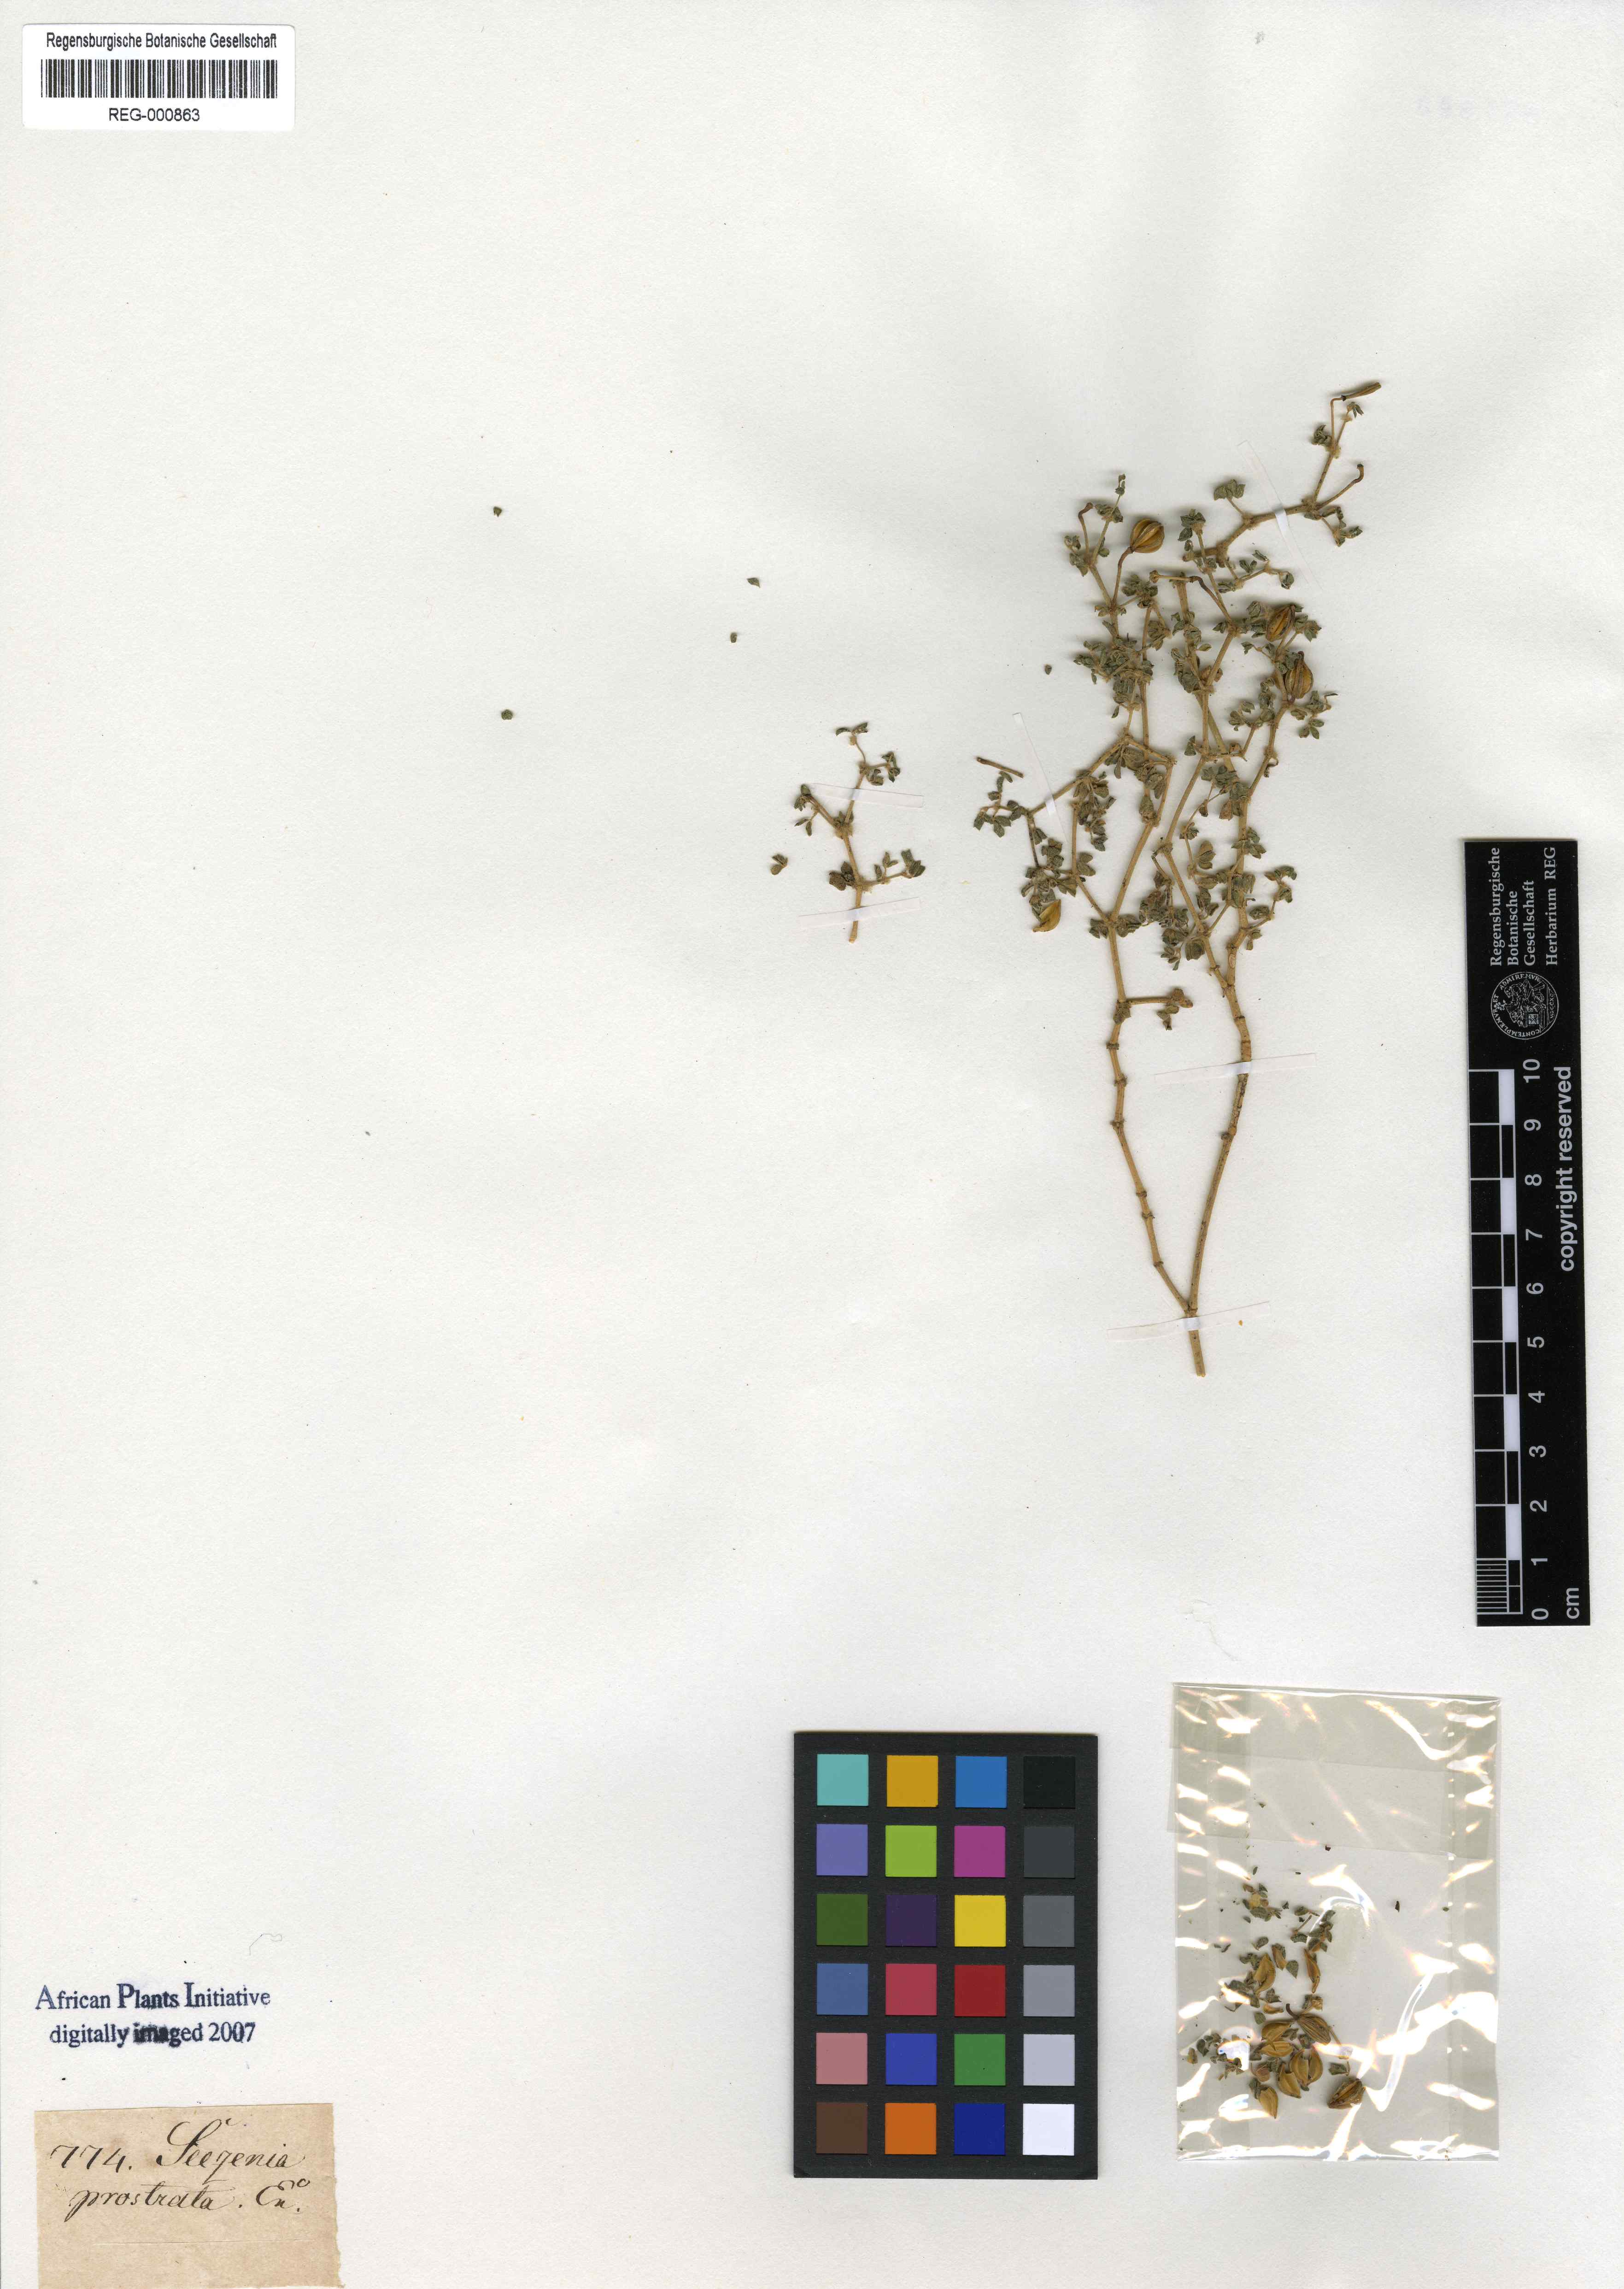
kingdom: Plantae
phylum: Tracheophyta
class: Magnoliopsida
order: Zygophyllales
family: Zygophyllaceae
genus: Seetzenia
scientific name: Seetzenia lanata
